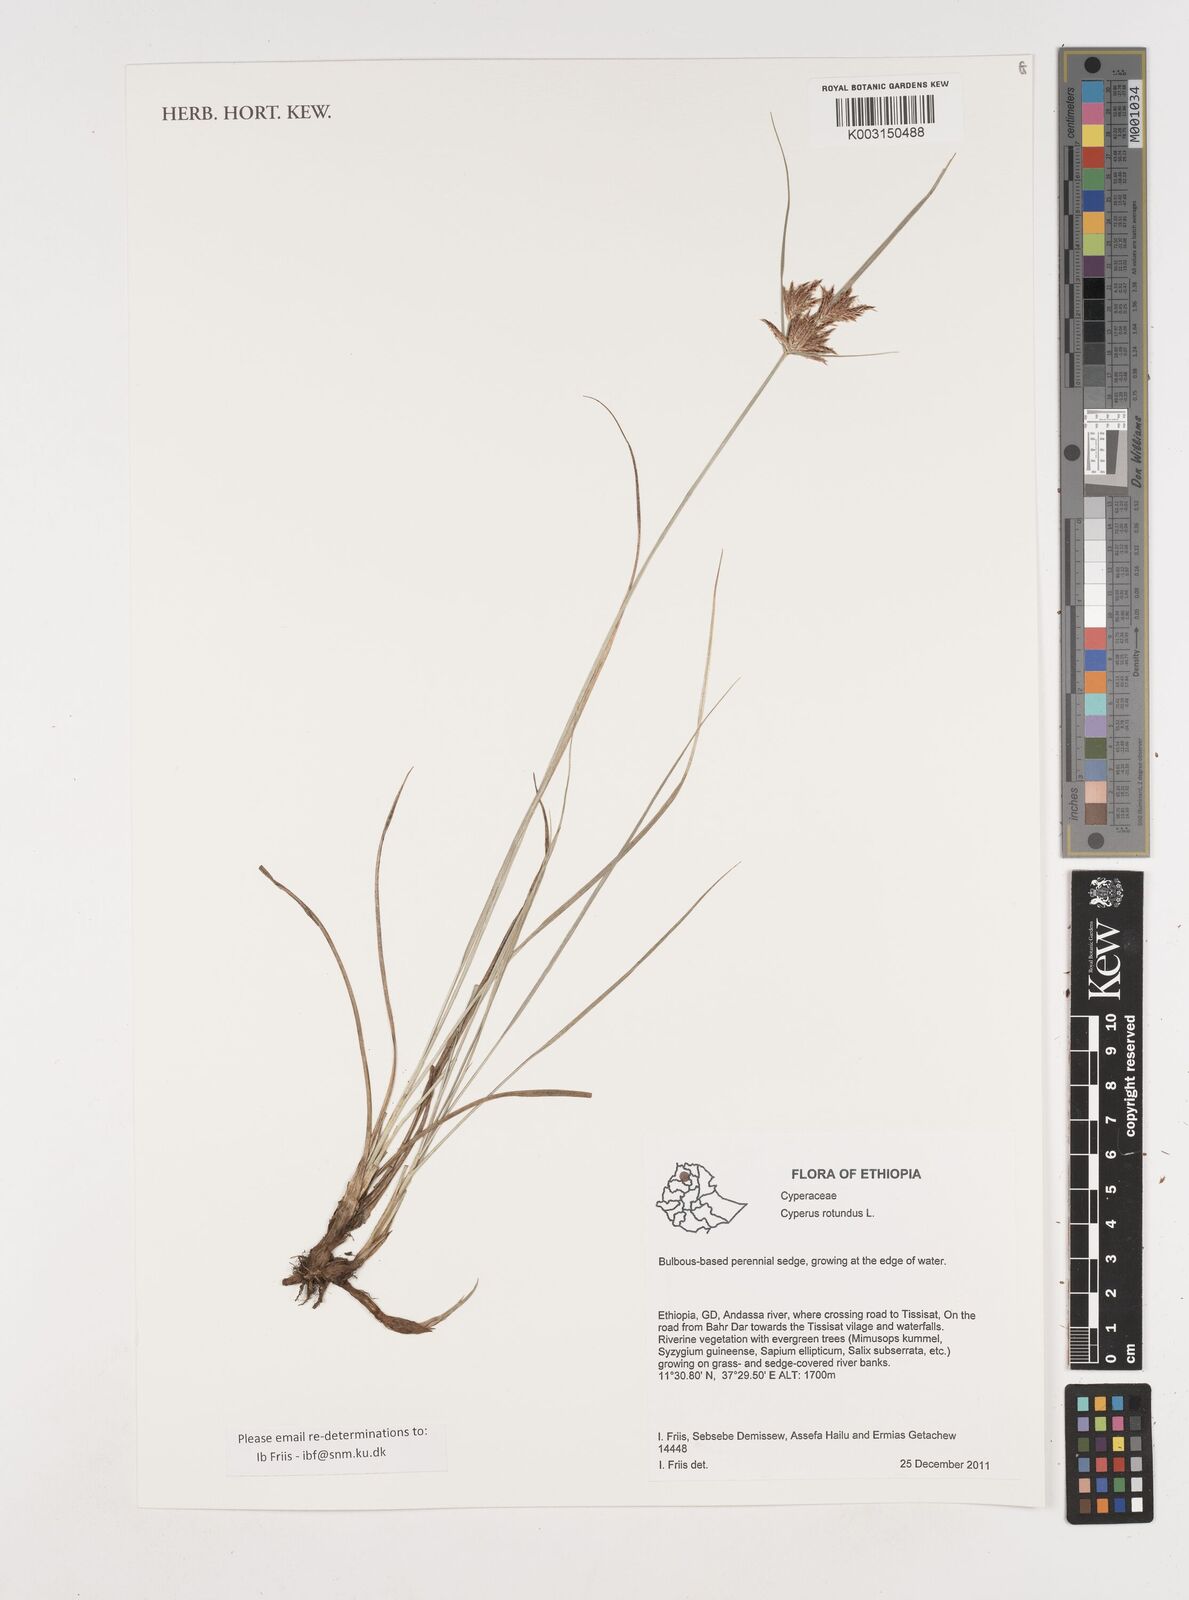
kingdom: Plantae
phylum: Tracheophyta
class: Liliopsida
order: Poales
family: Cyperaceae
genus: Cyperus
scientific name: Cyperus rotundus
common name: Nutgrass
